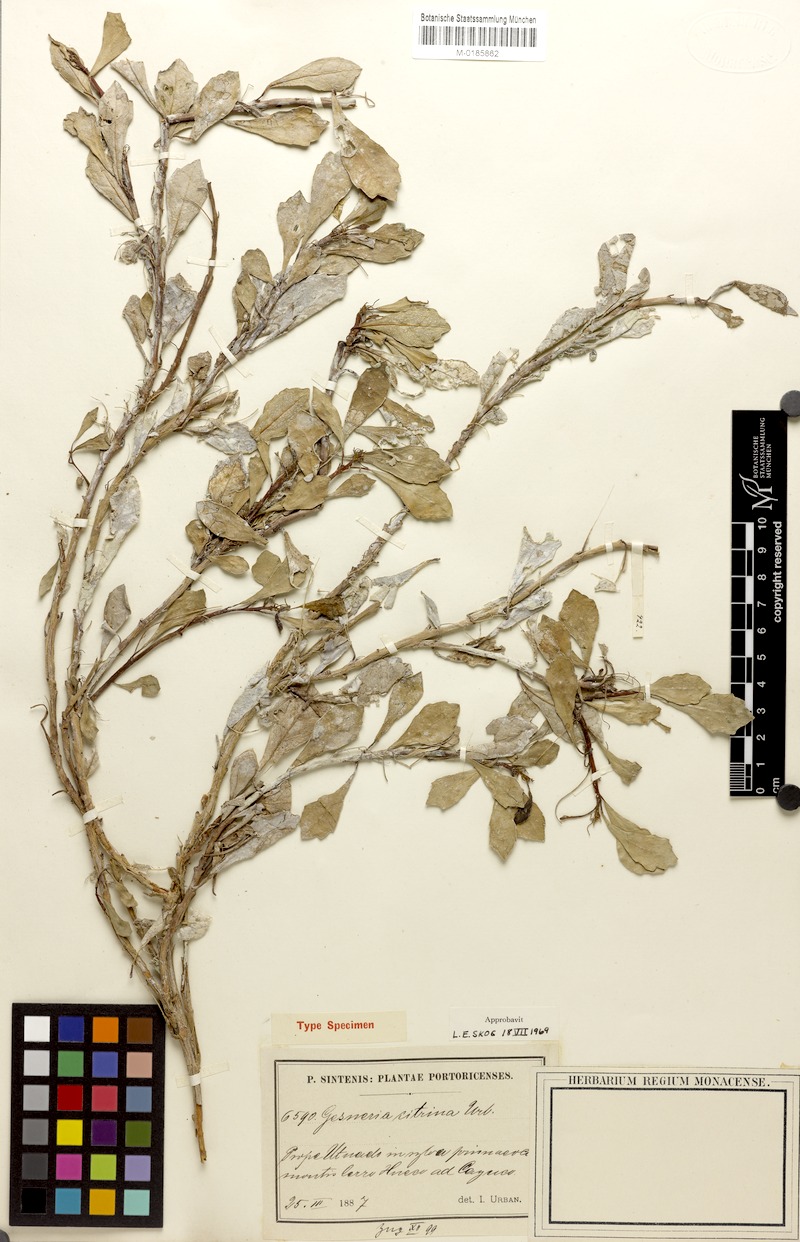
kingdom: Plantae
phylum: Tracheophyta
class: Magnoliopsida
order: Lamiales
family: Gesneriaceae
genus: Gesneria
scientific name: Gesneria citrina
